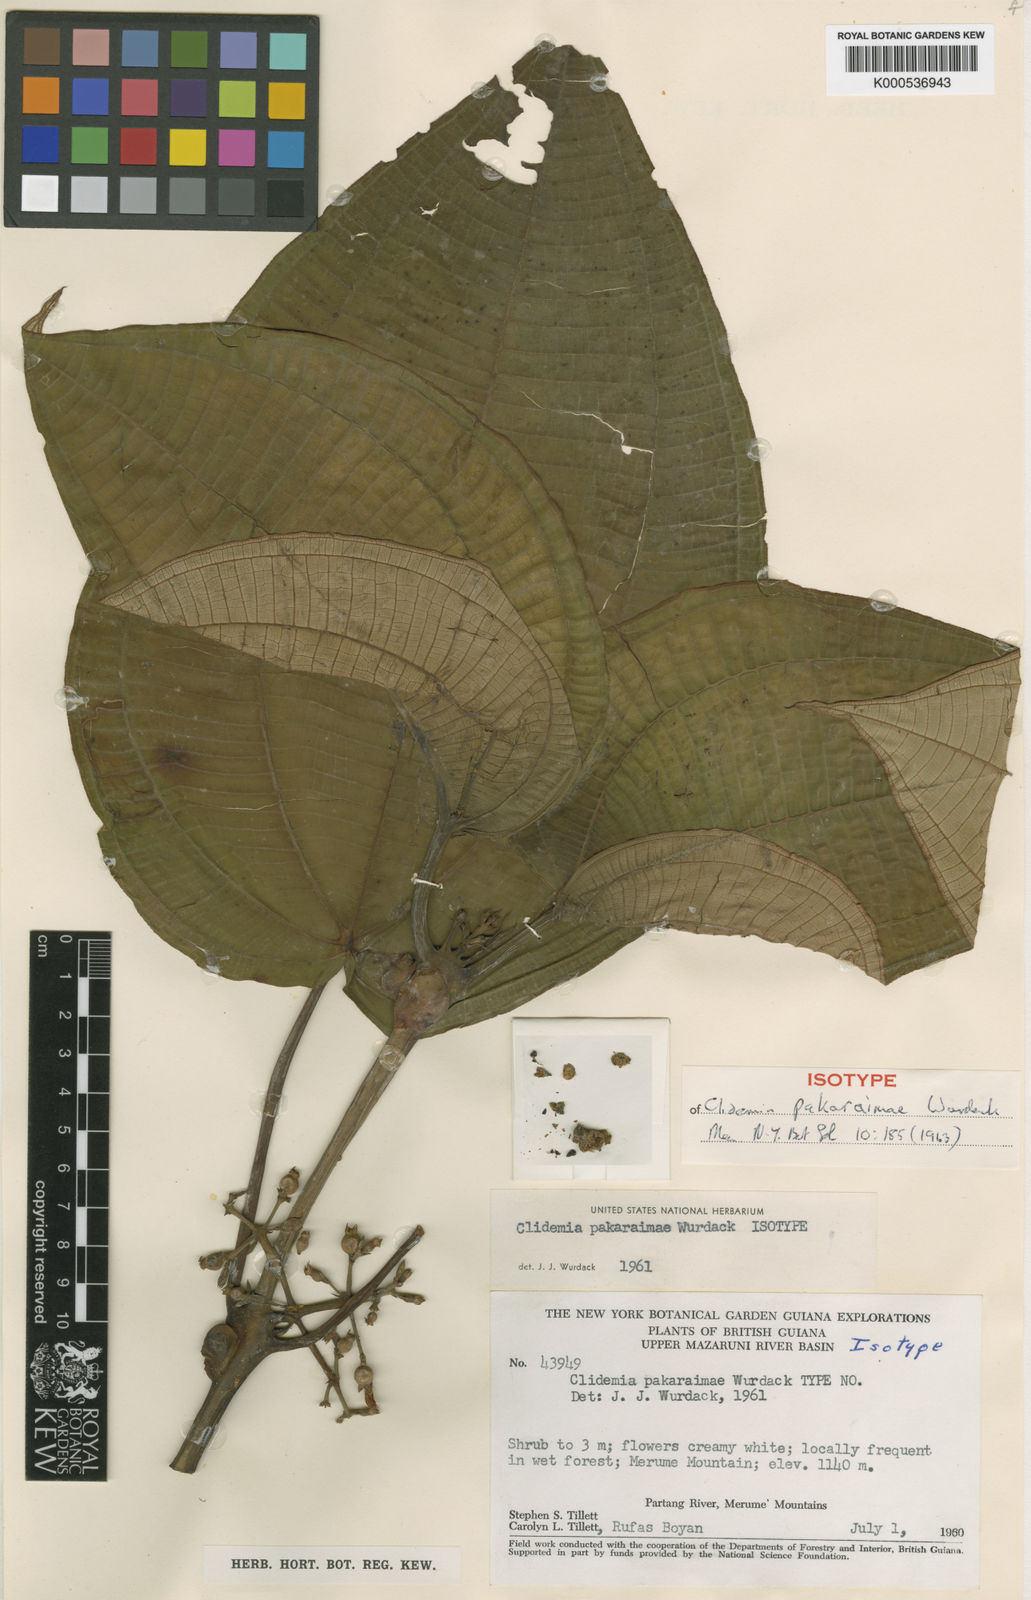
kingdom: Plantae
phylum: Tracheophyta
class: Magnoliopsida
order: Myrtales
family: Melastomataceae
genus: Miconia
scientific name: Miconia pakaraimae
